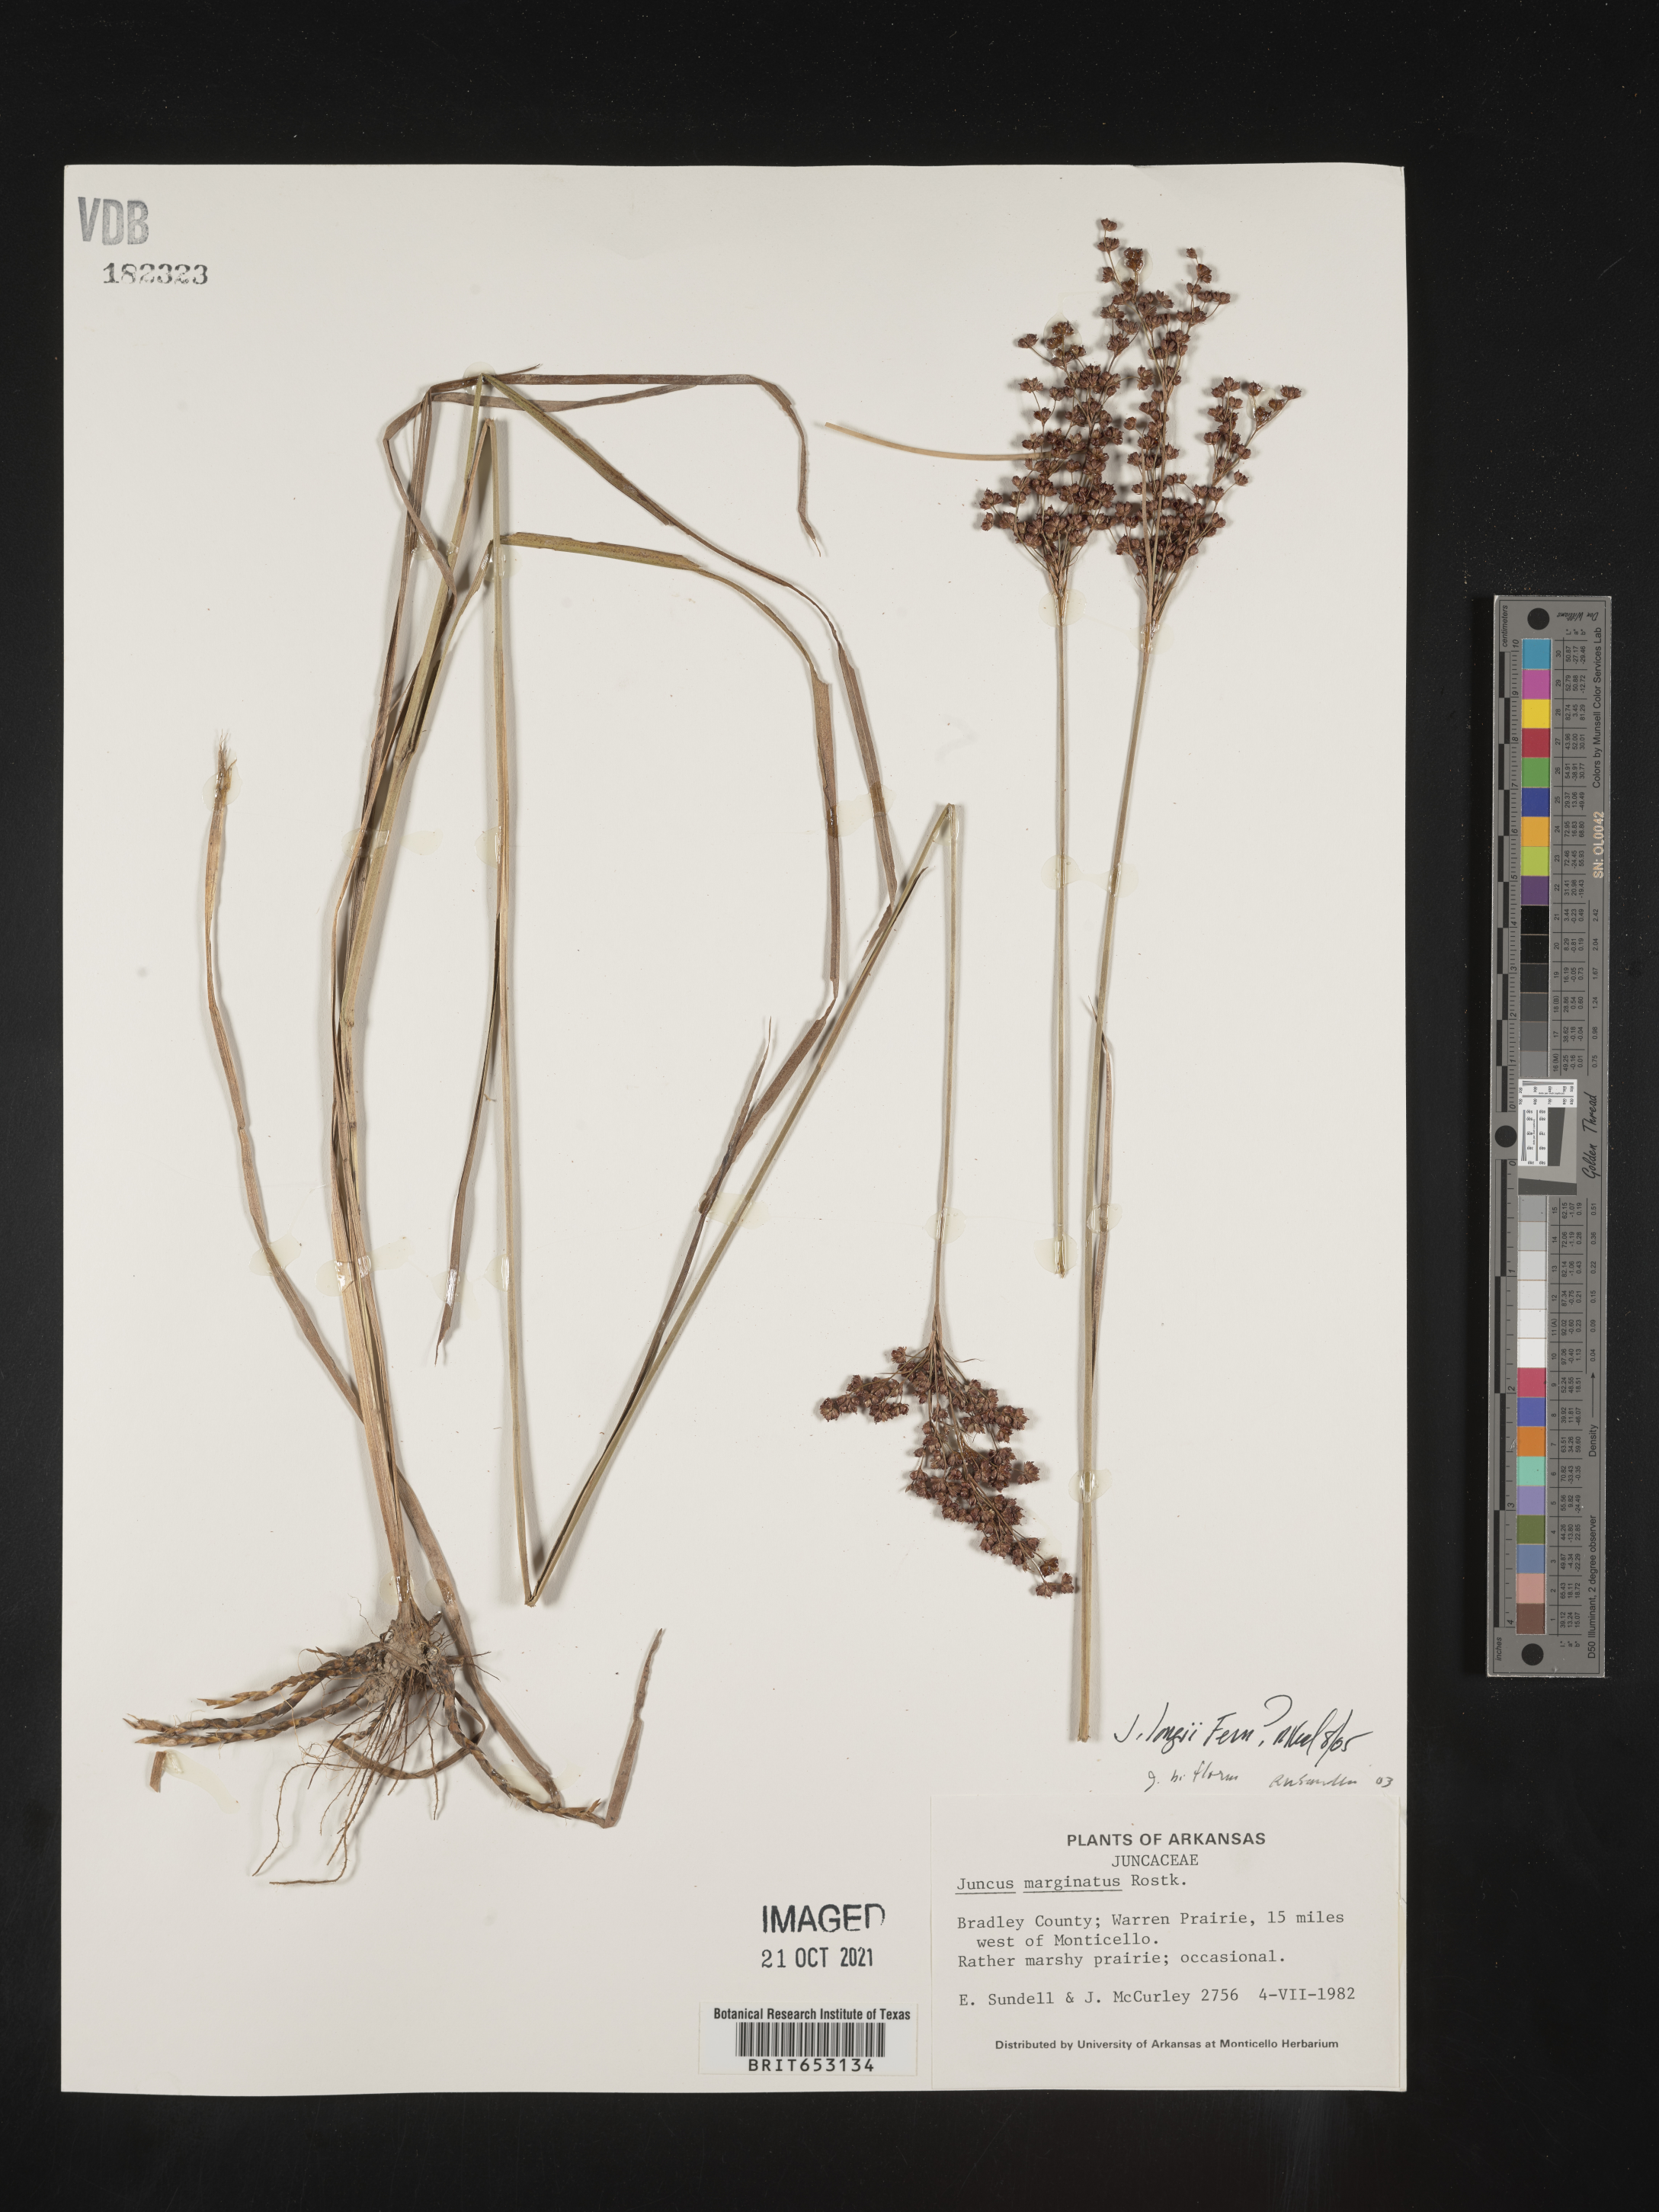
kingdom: Plantae
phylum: Tracheophyta
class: Liliopsida
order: Poales
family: Juncaceae
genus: Juncus
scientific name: Juncus longii
